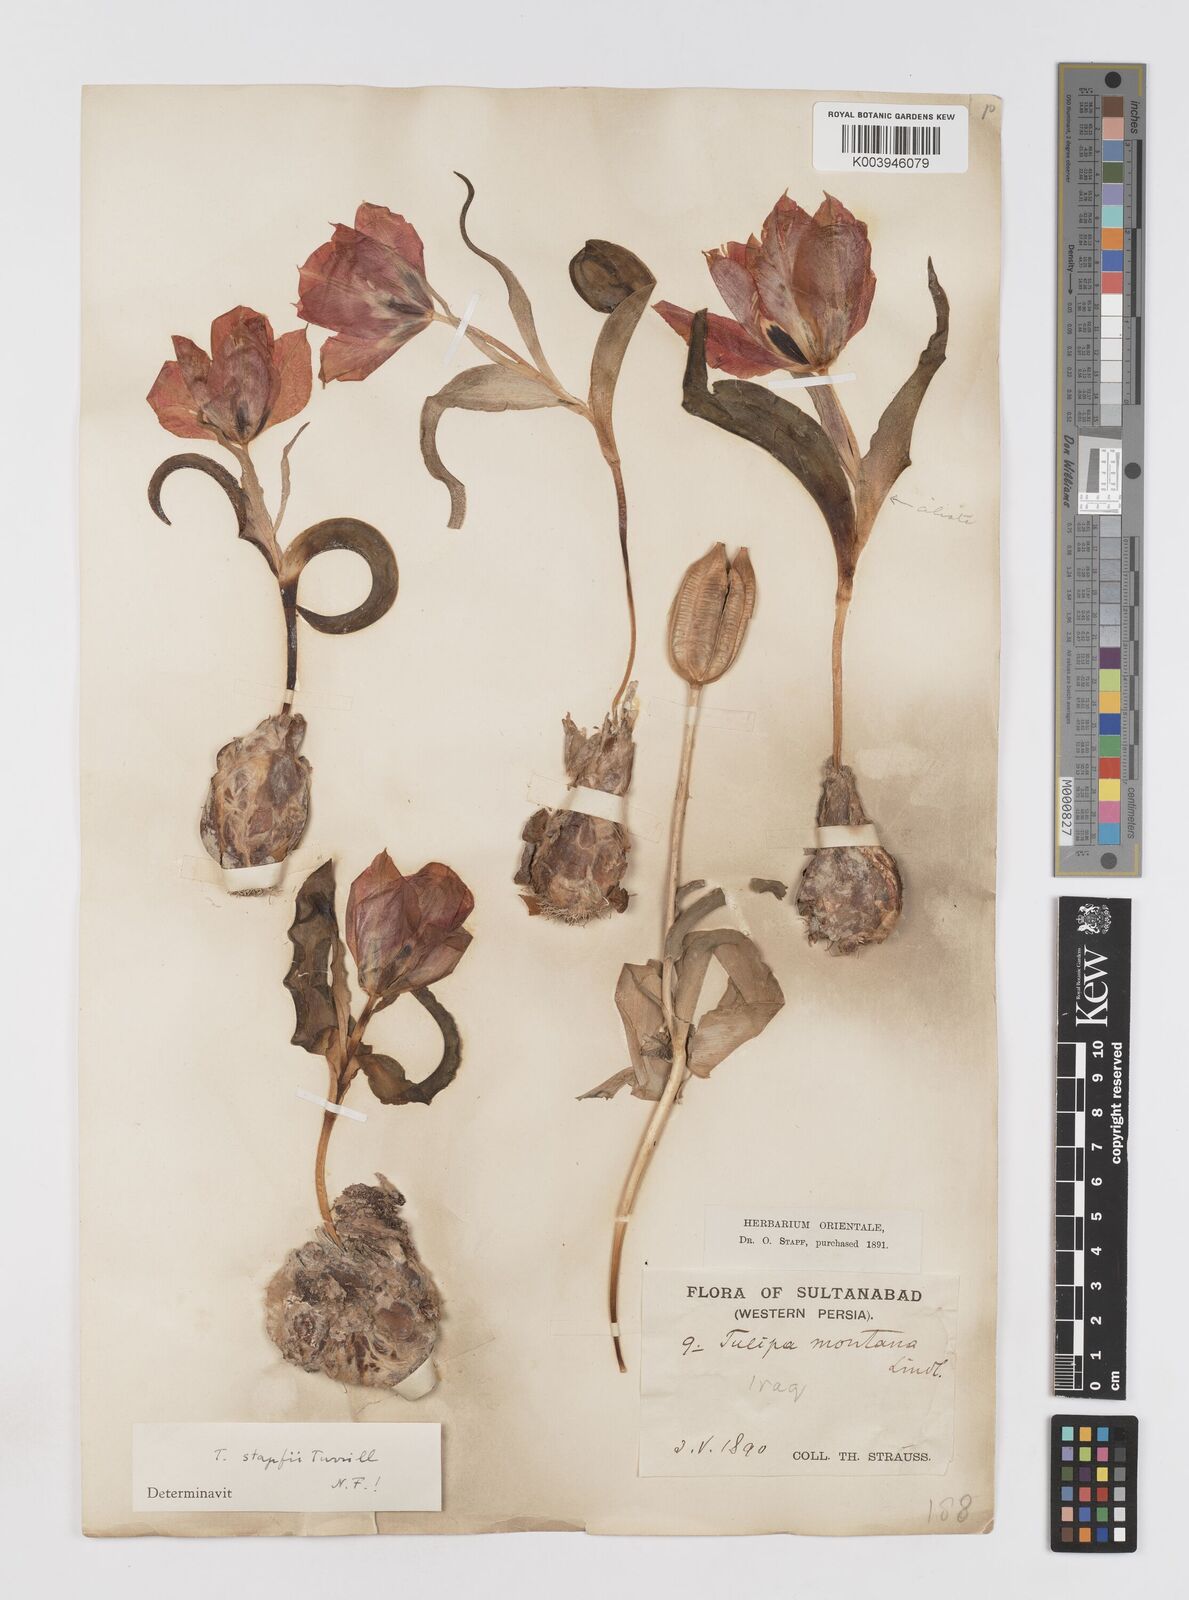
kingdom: Plantae
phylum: Tracheophyta
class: Liliopsida
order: Liliales
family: Liliaceae
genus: Tulipa
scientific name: Tulipa systola
